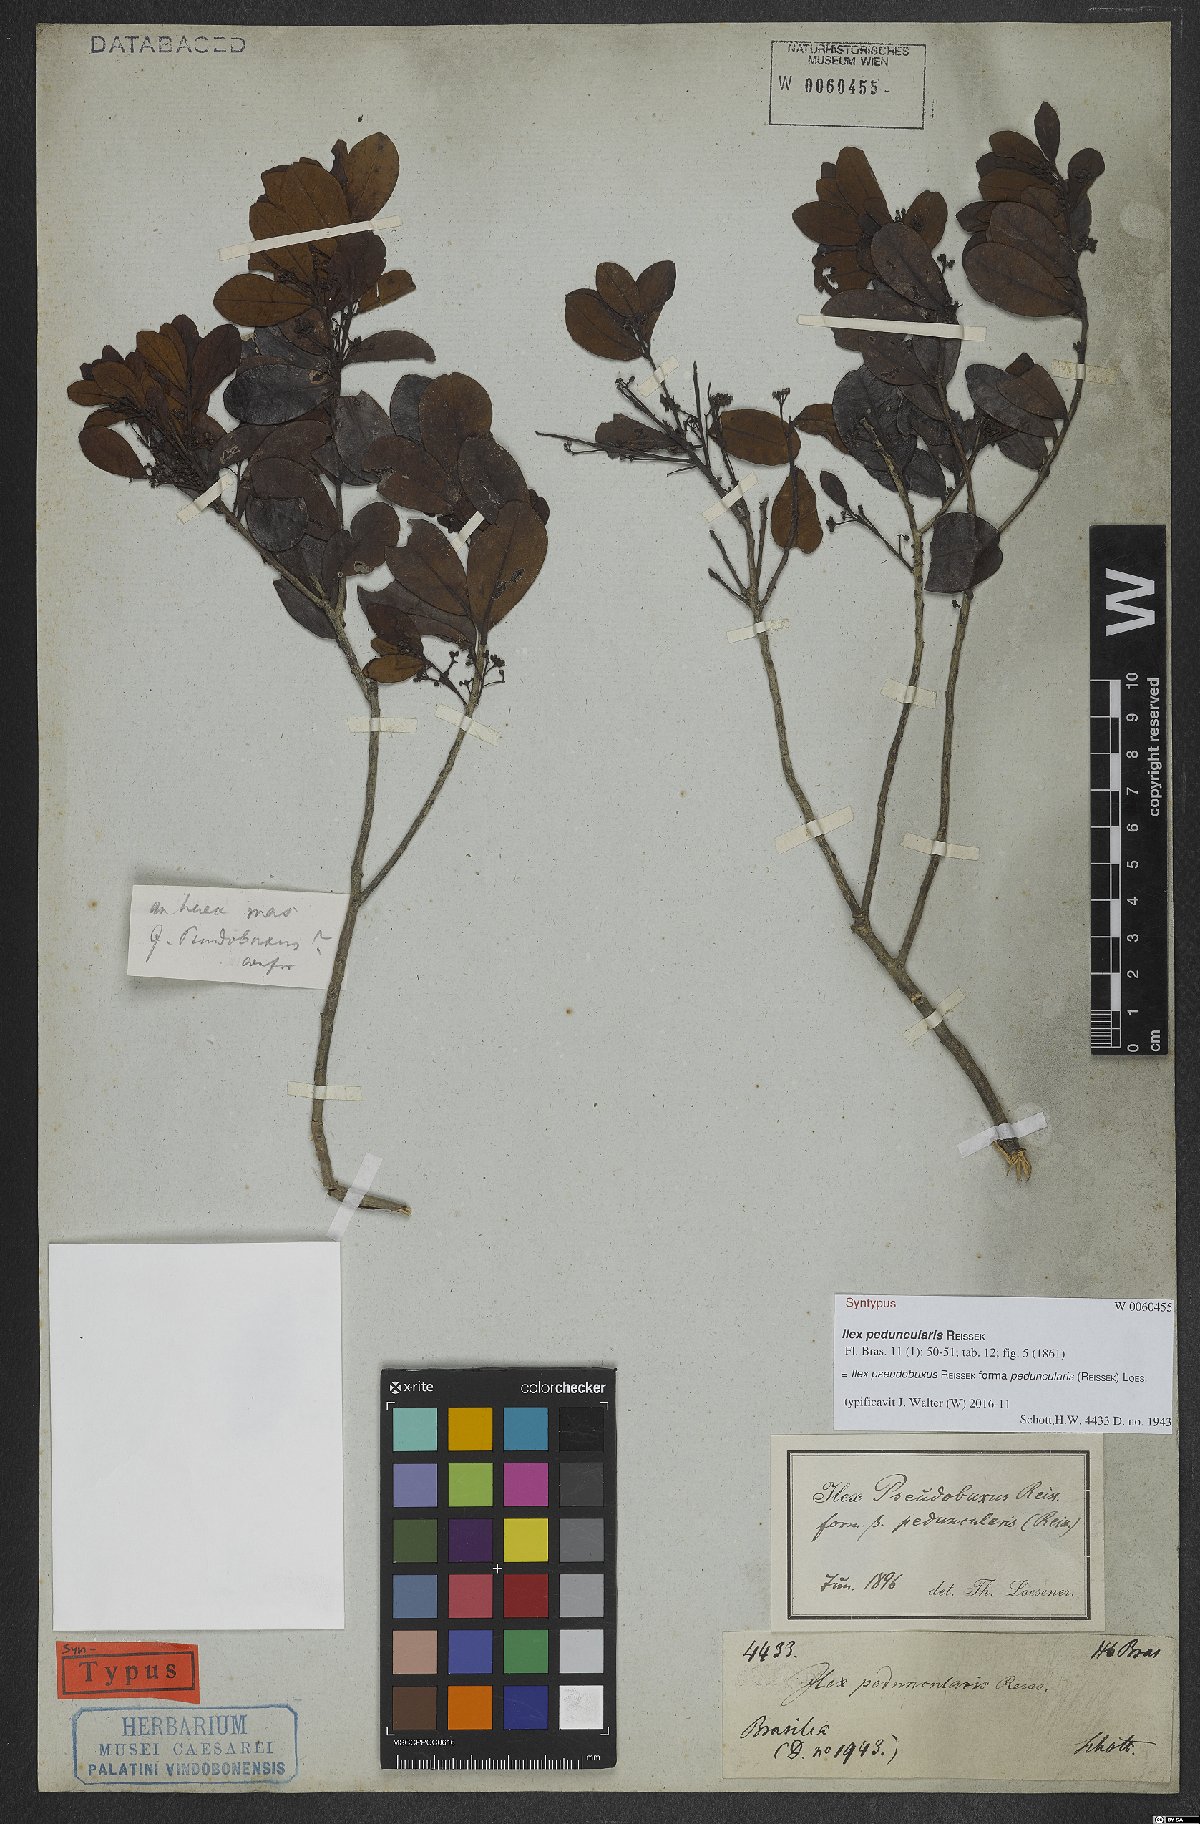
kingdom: Plantae
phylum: Tracheophyta
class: Magnoliopsida
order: Aquifoliales
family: Aquifoliaceae
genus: Ilex
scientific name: Ilex pseudobuxus
